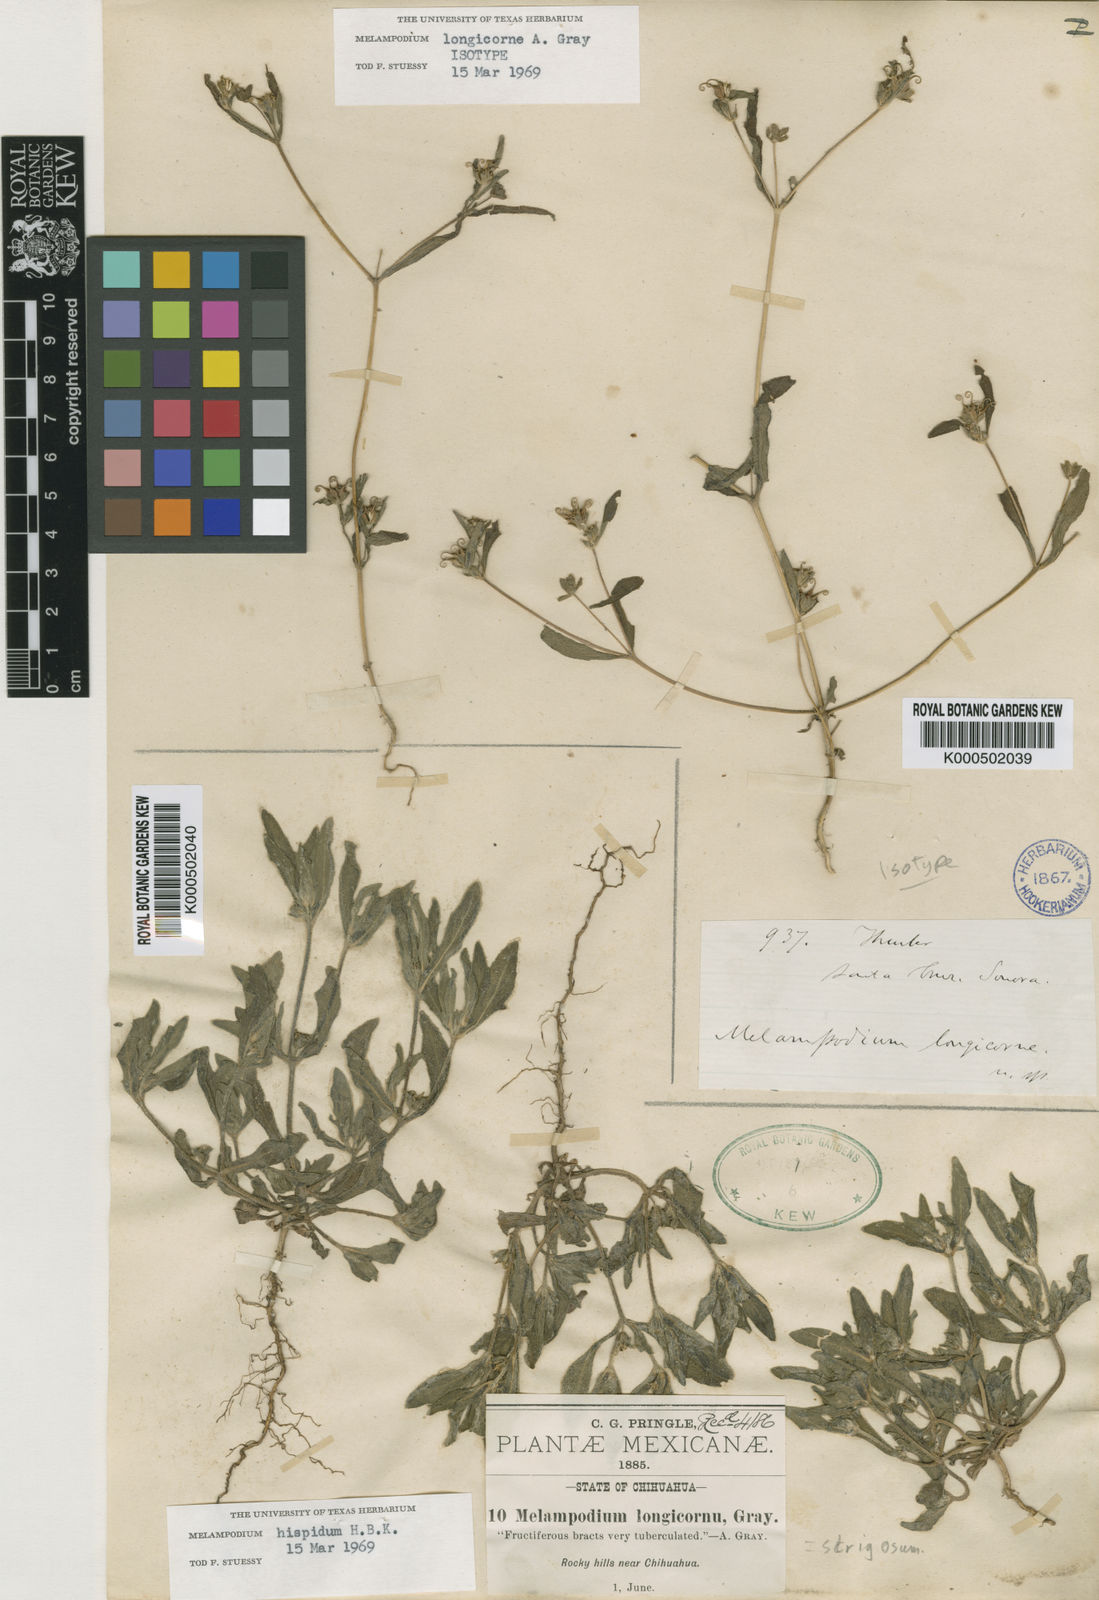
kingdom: Plantae
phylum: Tracheophyta
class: Magnoliopsida
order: Asterales
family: Asteraceae
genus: Melampodium
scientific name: Melampodium longicorne
